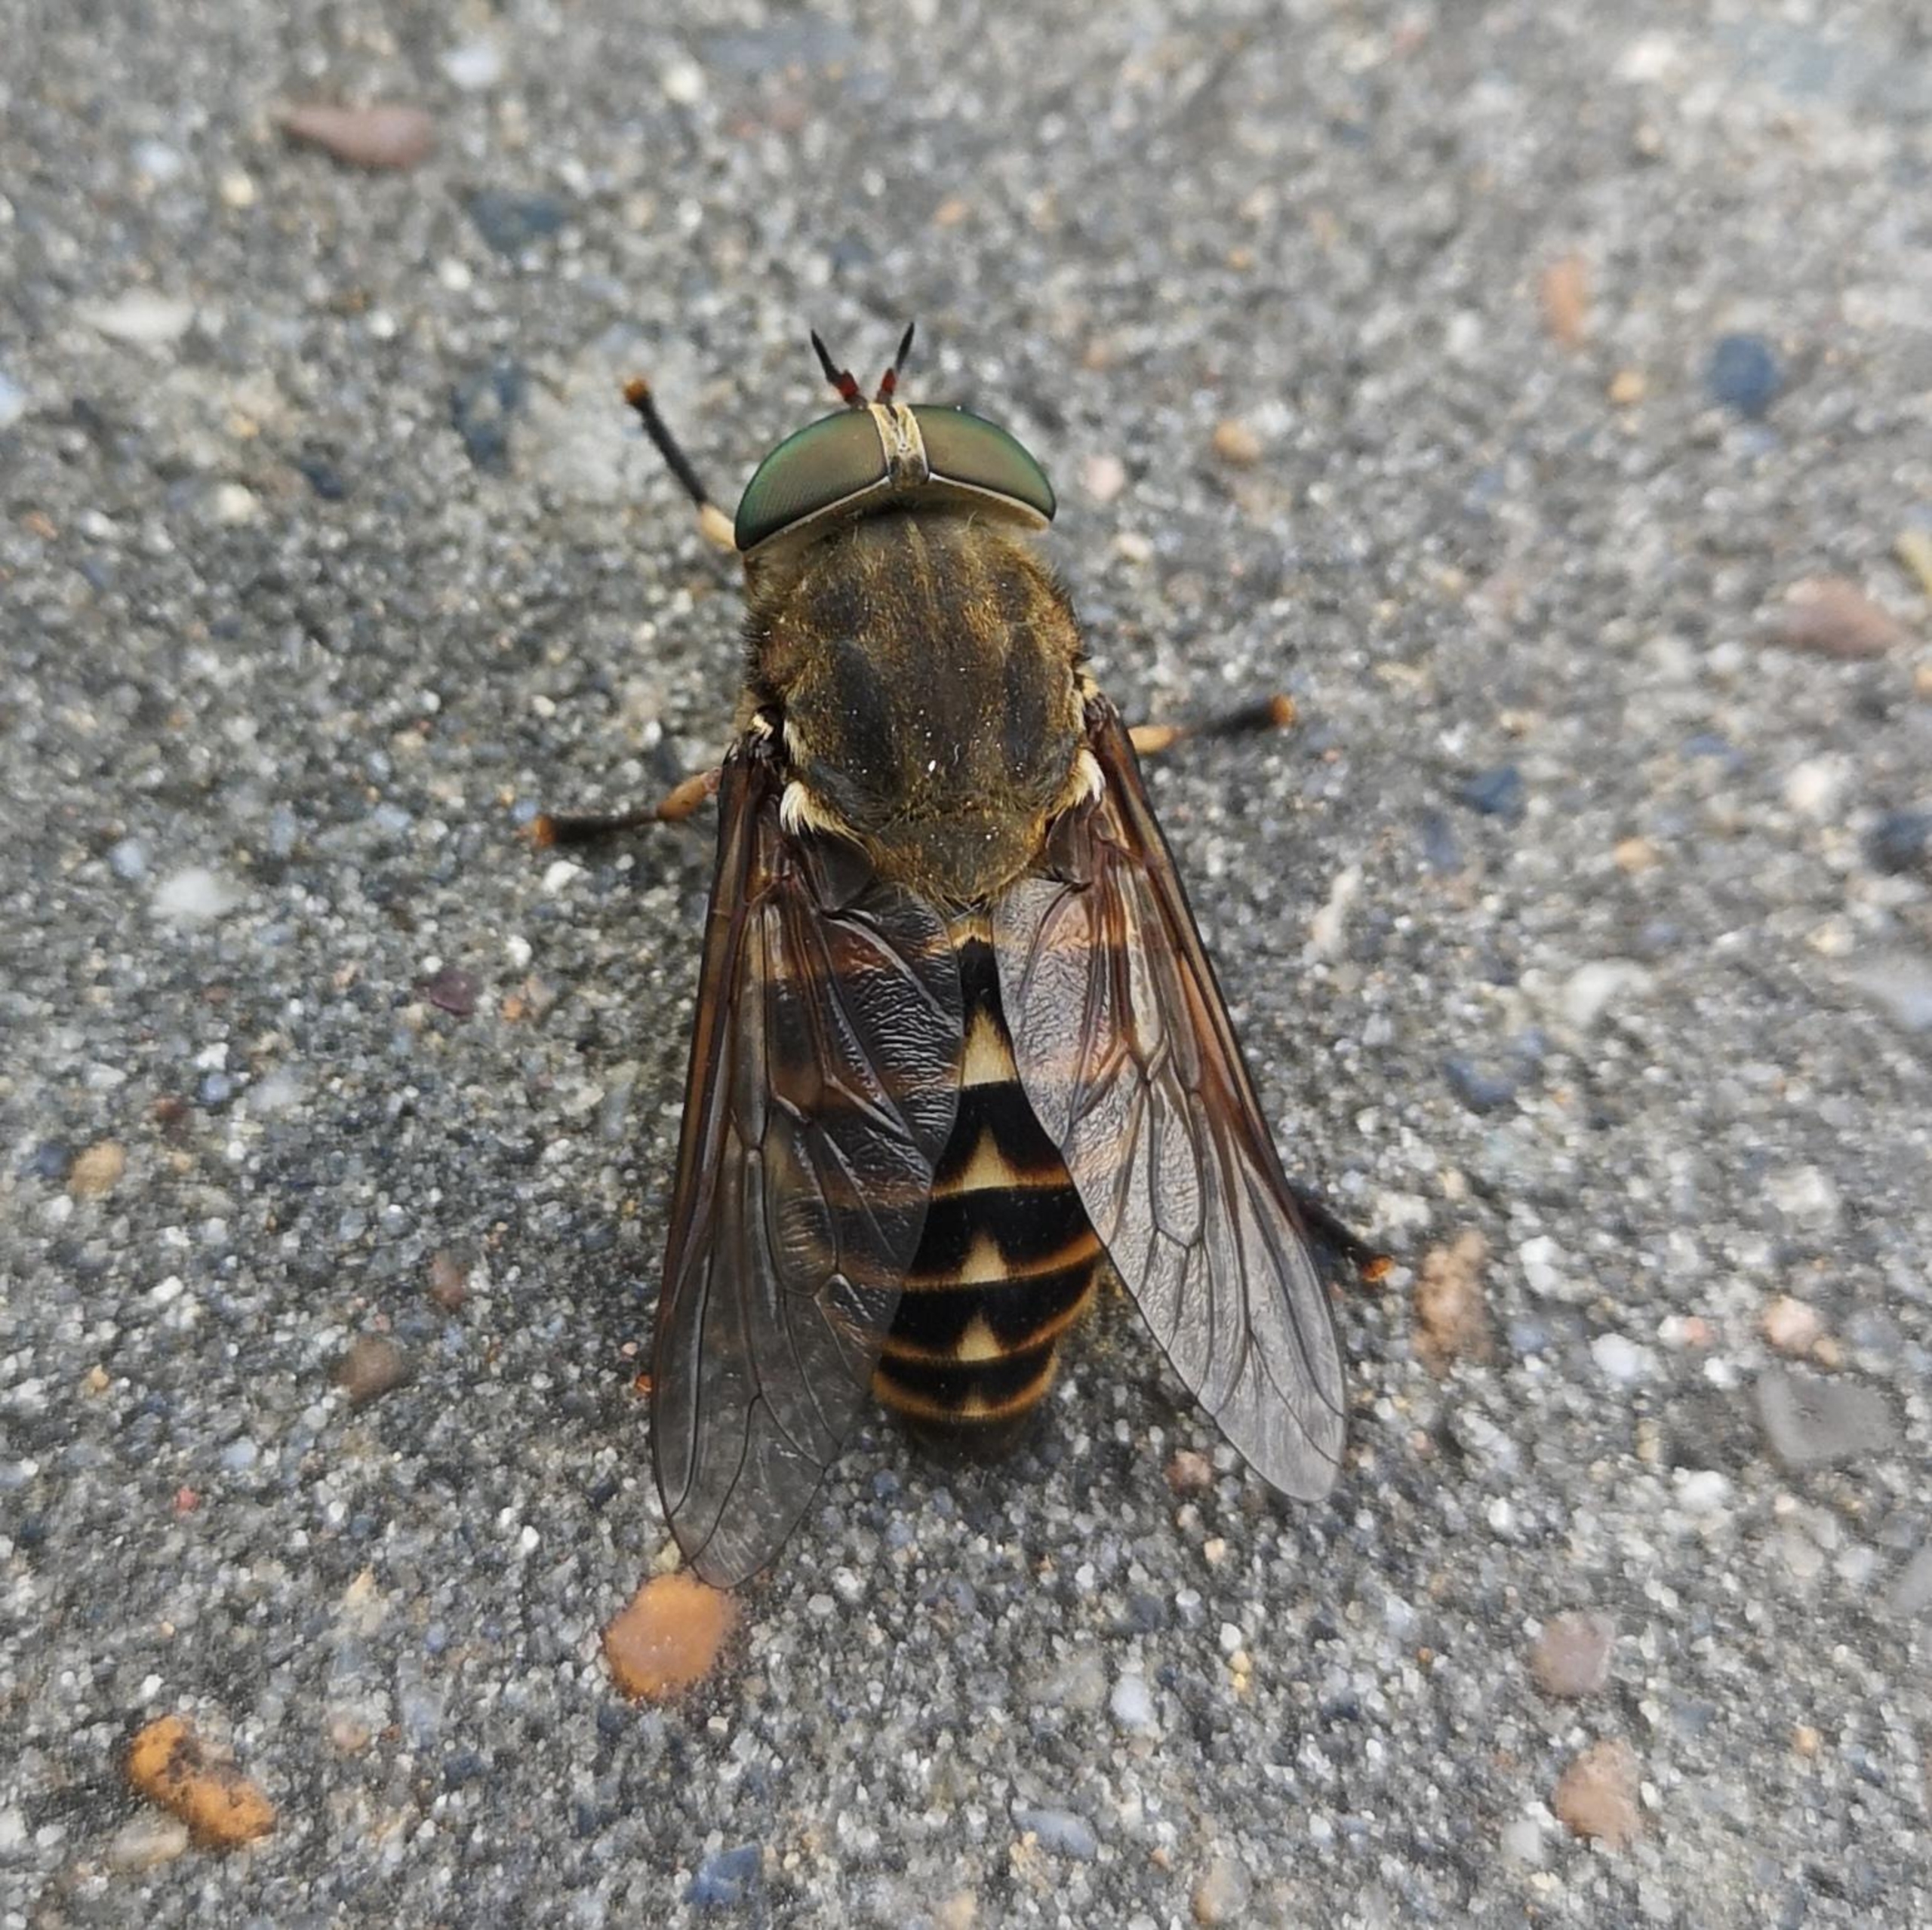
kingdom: Animalia
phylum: Arthropoda
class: Insecta
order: Diptera
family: Tabanidae
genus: Tabanus
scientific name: Tabanus sudeticus
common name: Hesteklæg
